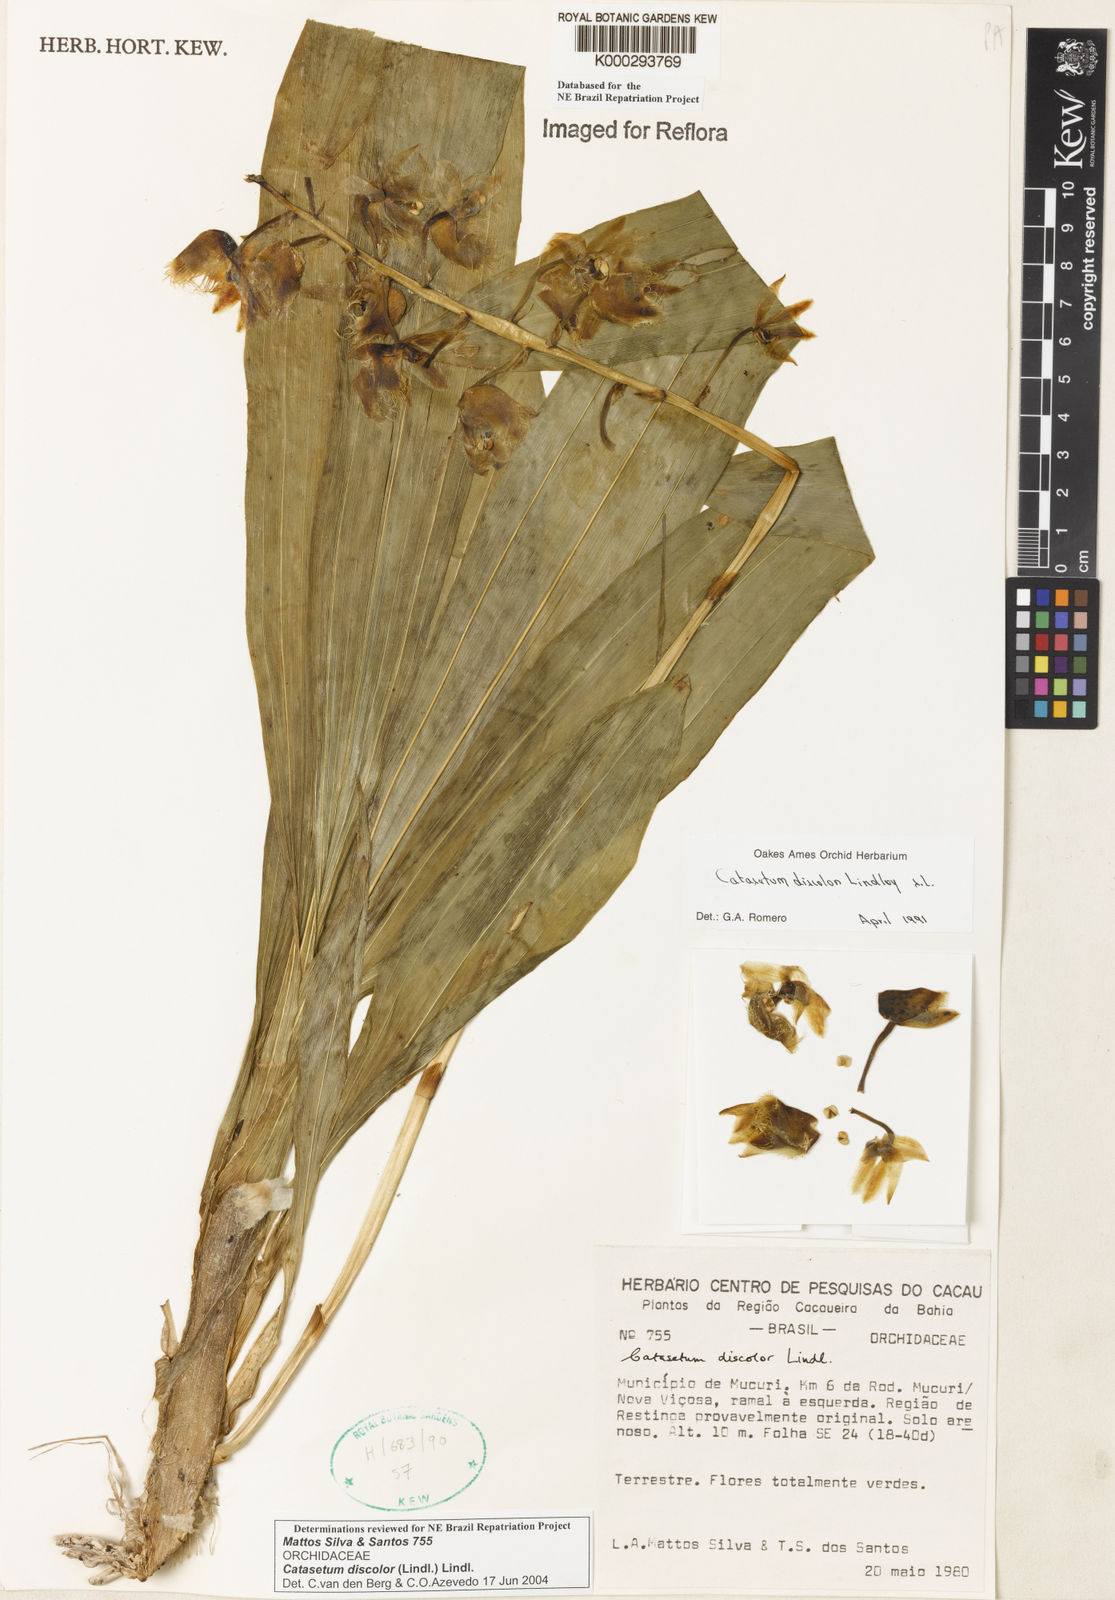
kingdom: Plantae
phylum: Tracheophyta
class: Liliopsida
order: Asparagales
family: Orchidaceae
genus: Catasetum
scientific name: Catasetum discolor
